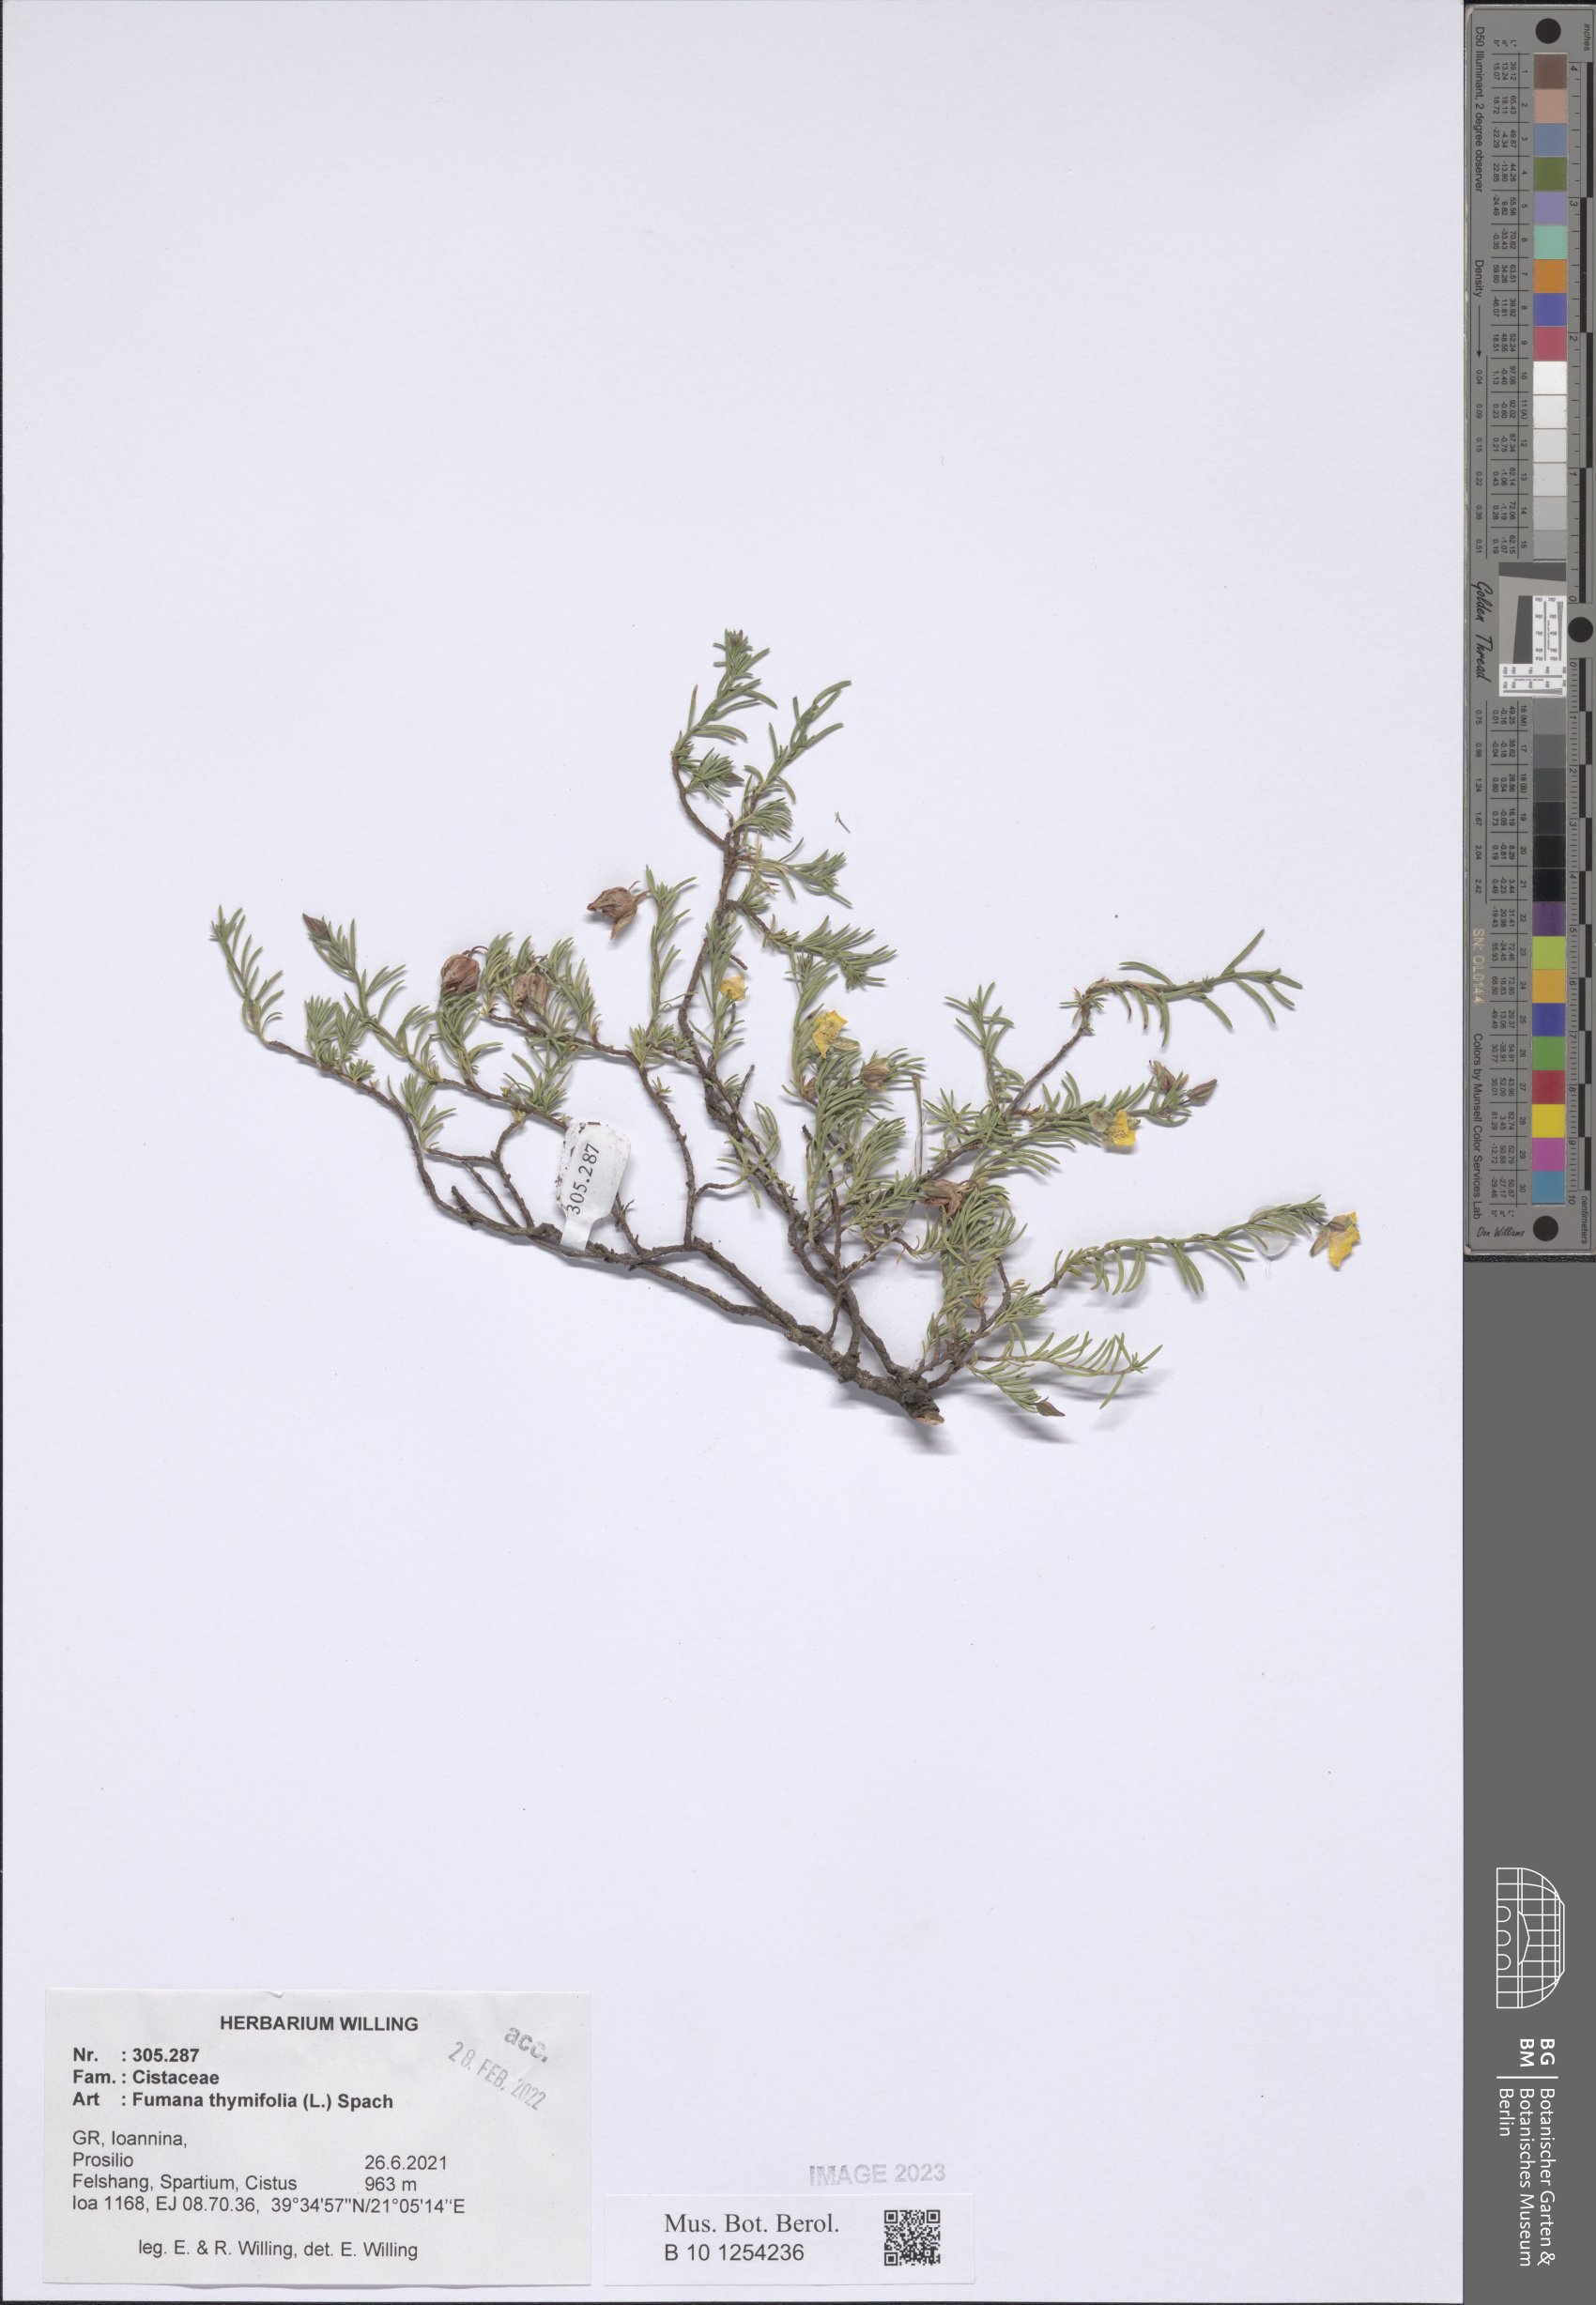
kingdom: Plantae
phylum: Tracheophyta
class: Magnoliopsida
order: Malvales
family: Cistaceae
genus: Fumana
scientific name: Fumana thymifolia
